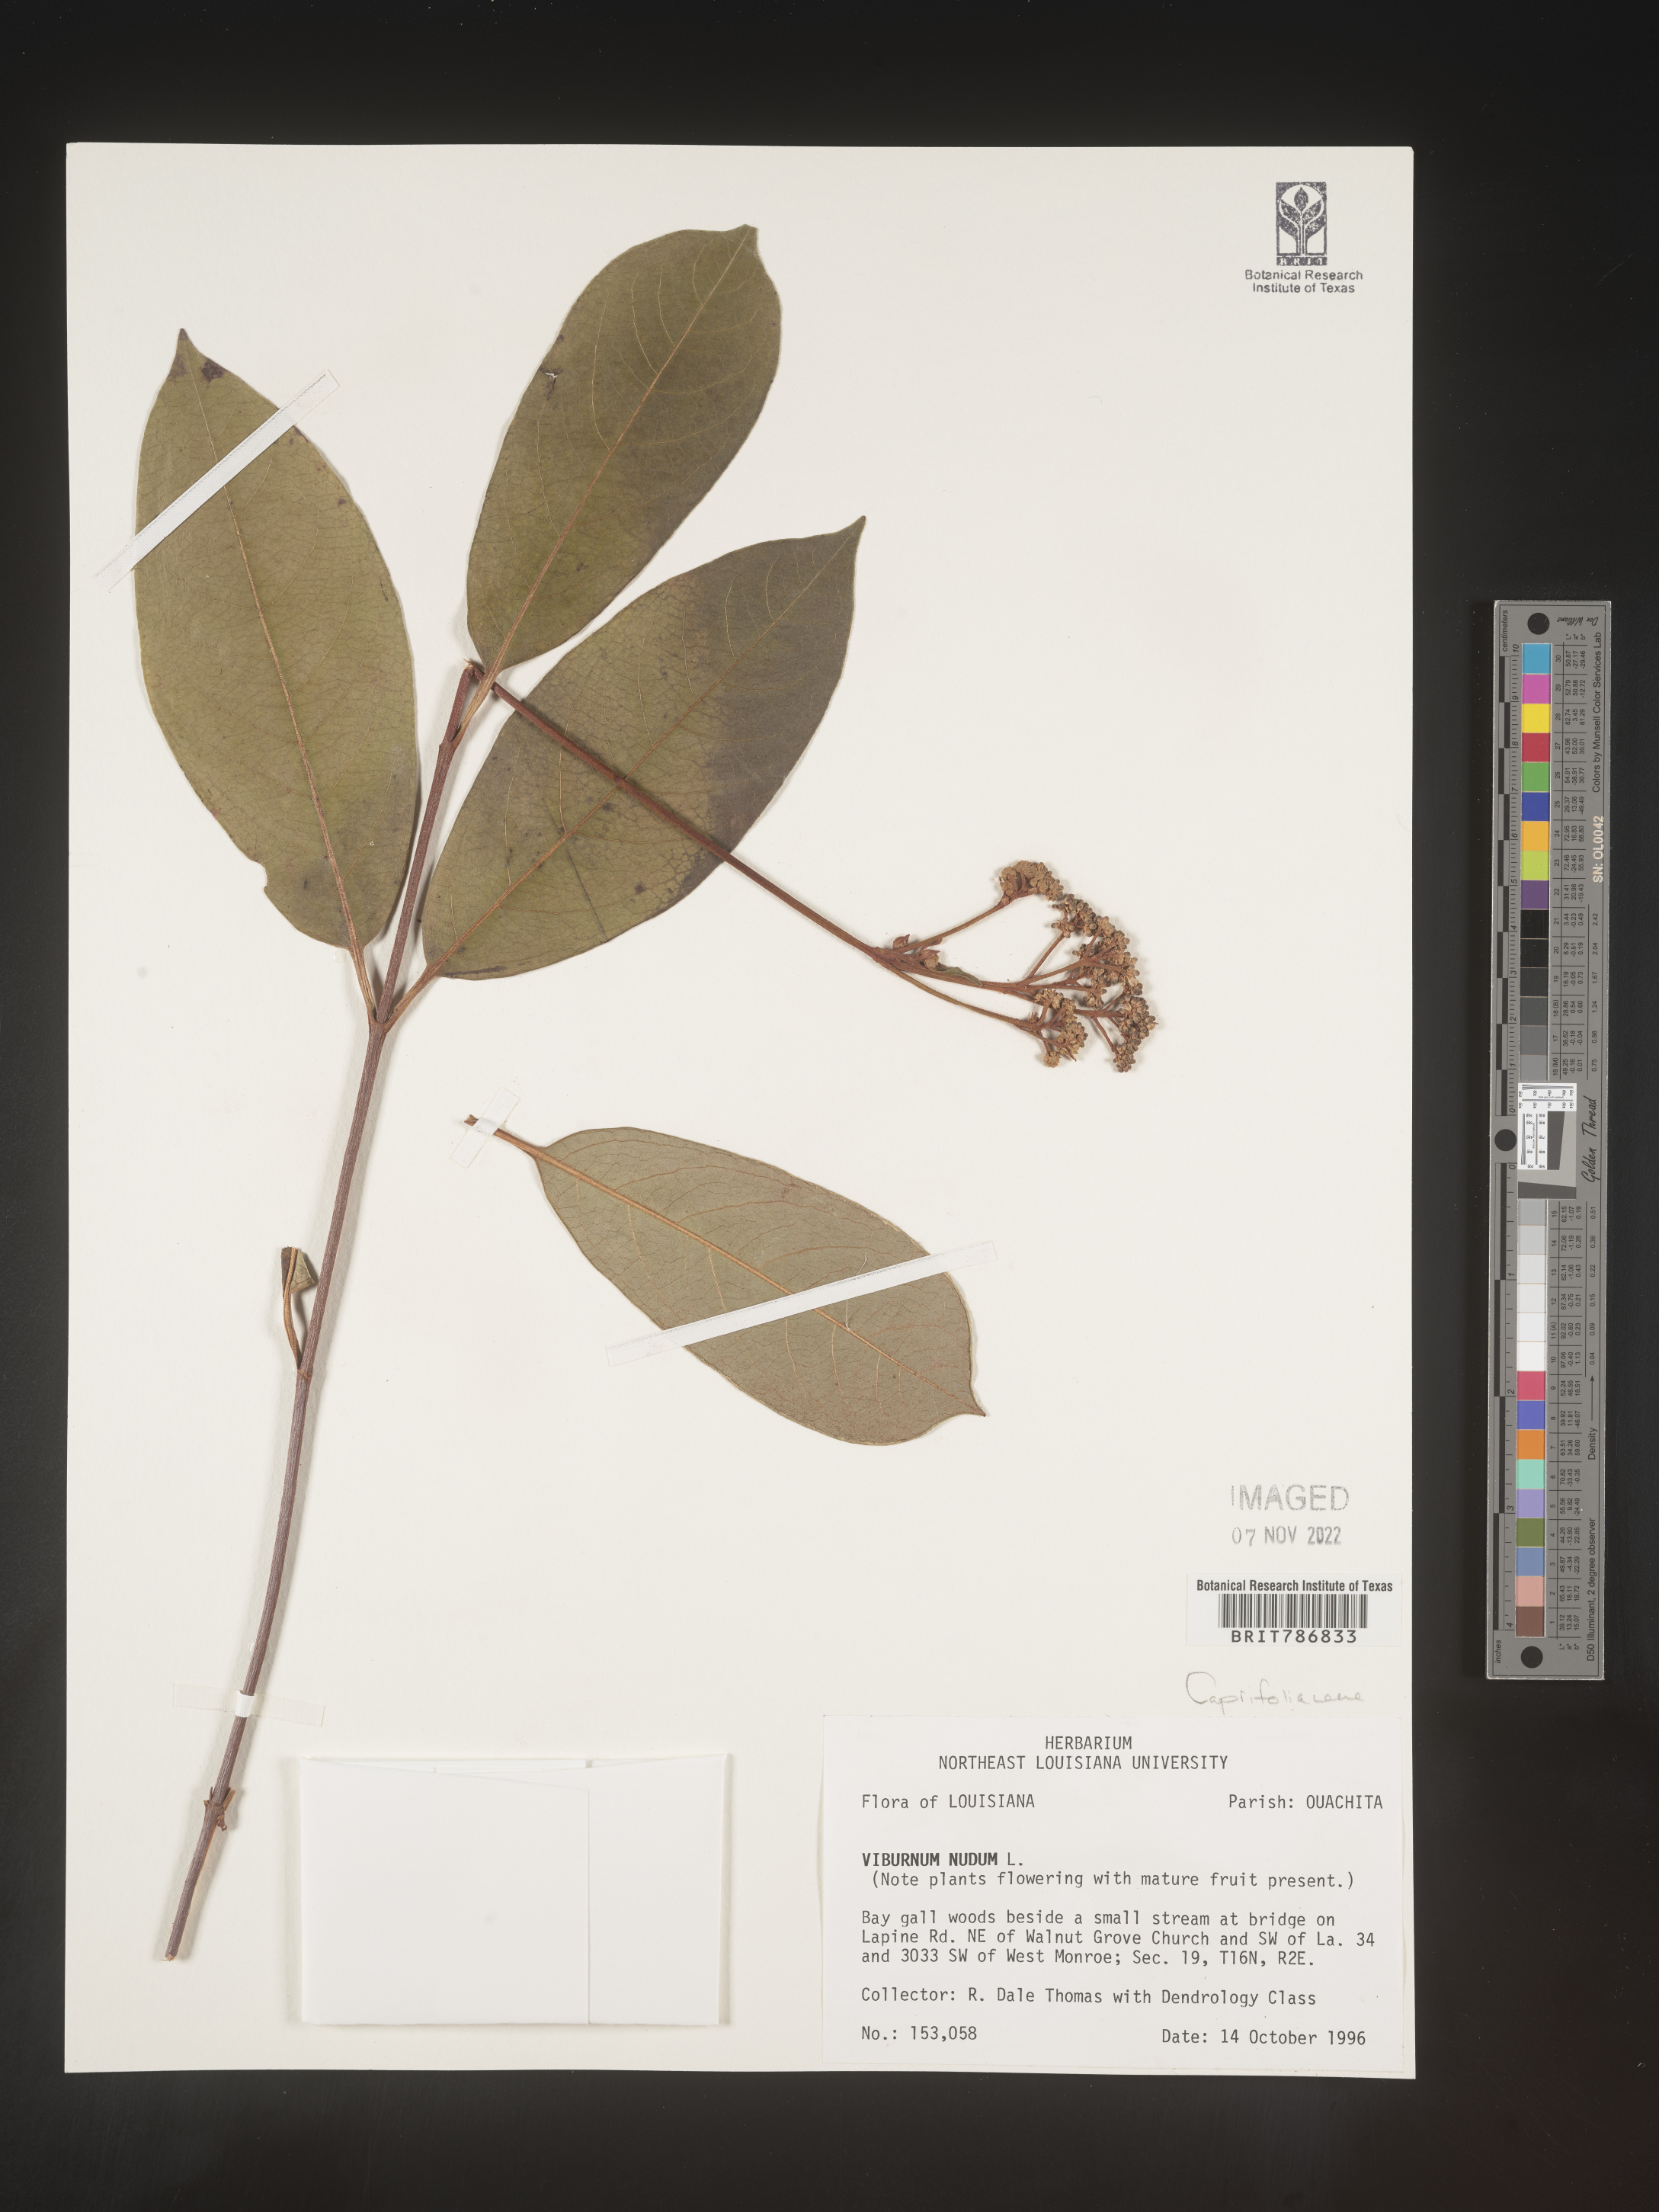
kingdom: Plantae
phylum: Tracheophyta
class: Magnoliopsida
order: Dipsacales
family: Viburnaceae
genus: Viburnum
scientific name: Viburnum nudum
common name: Possum haw
